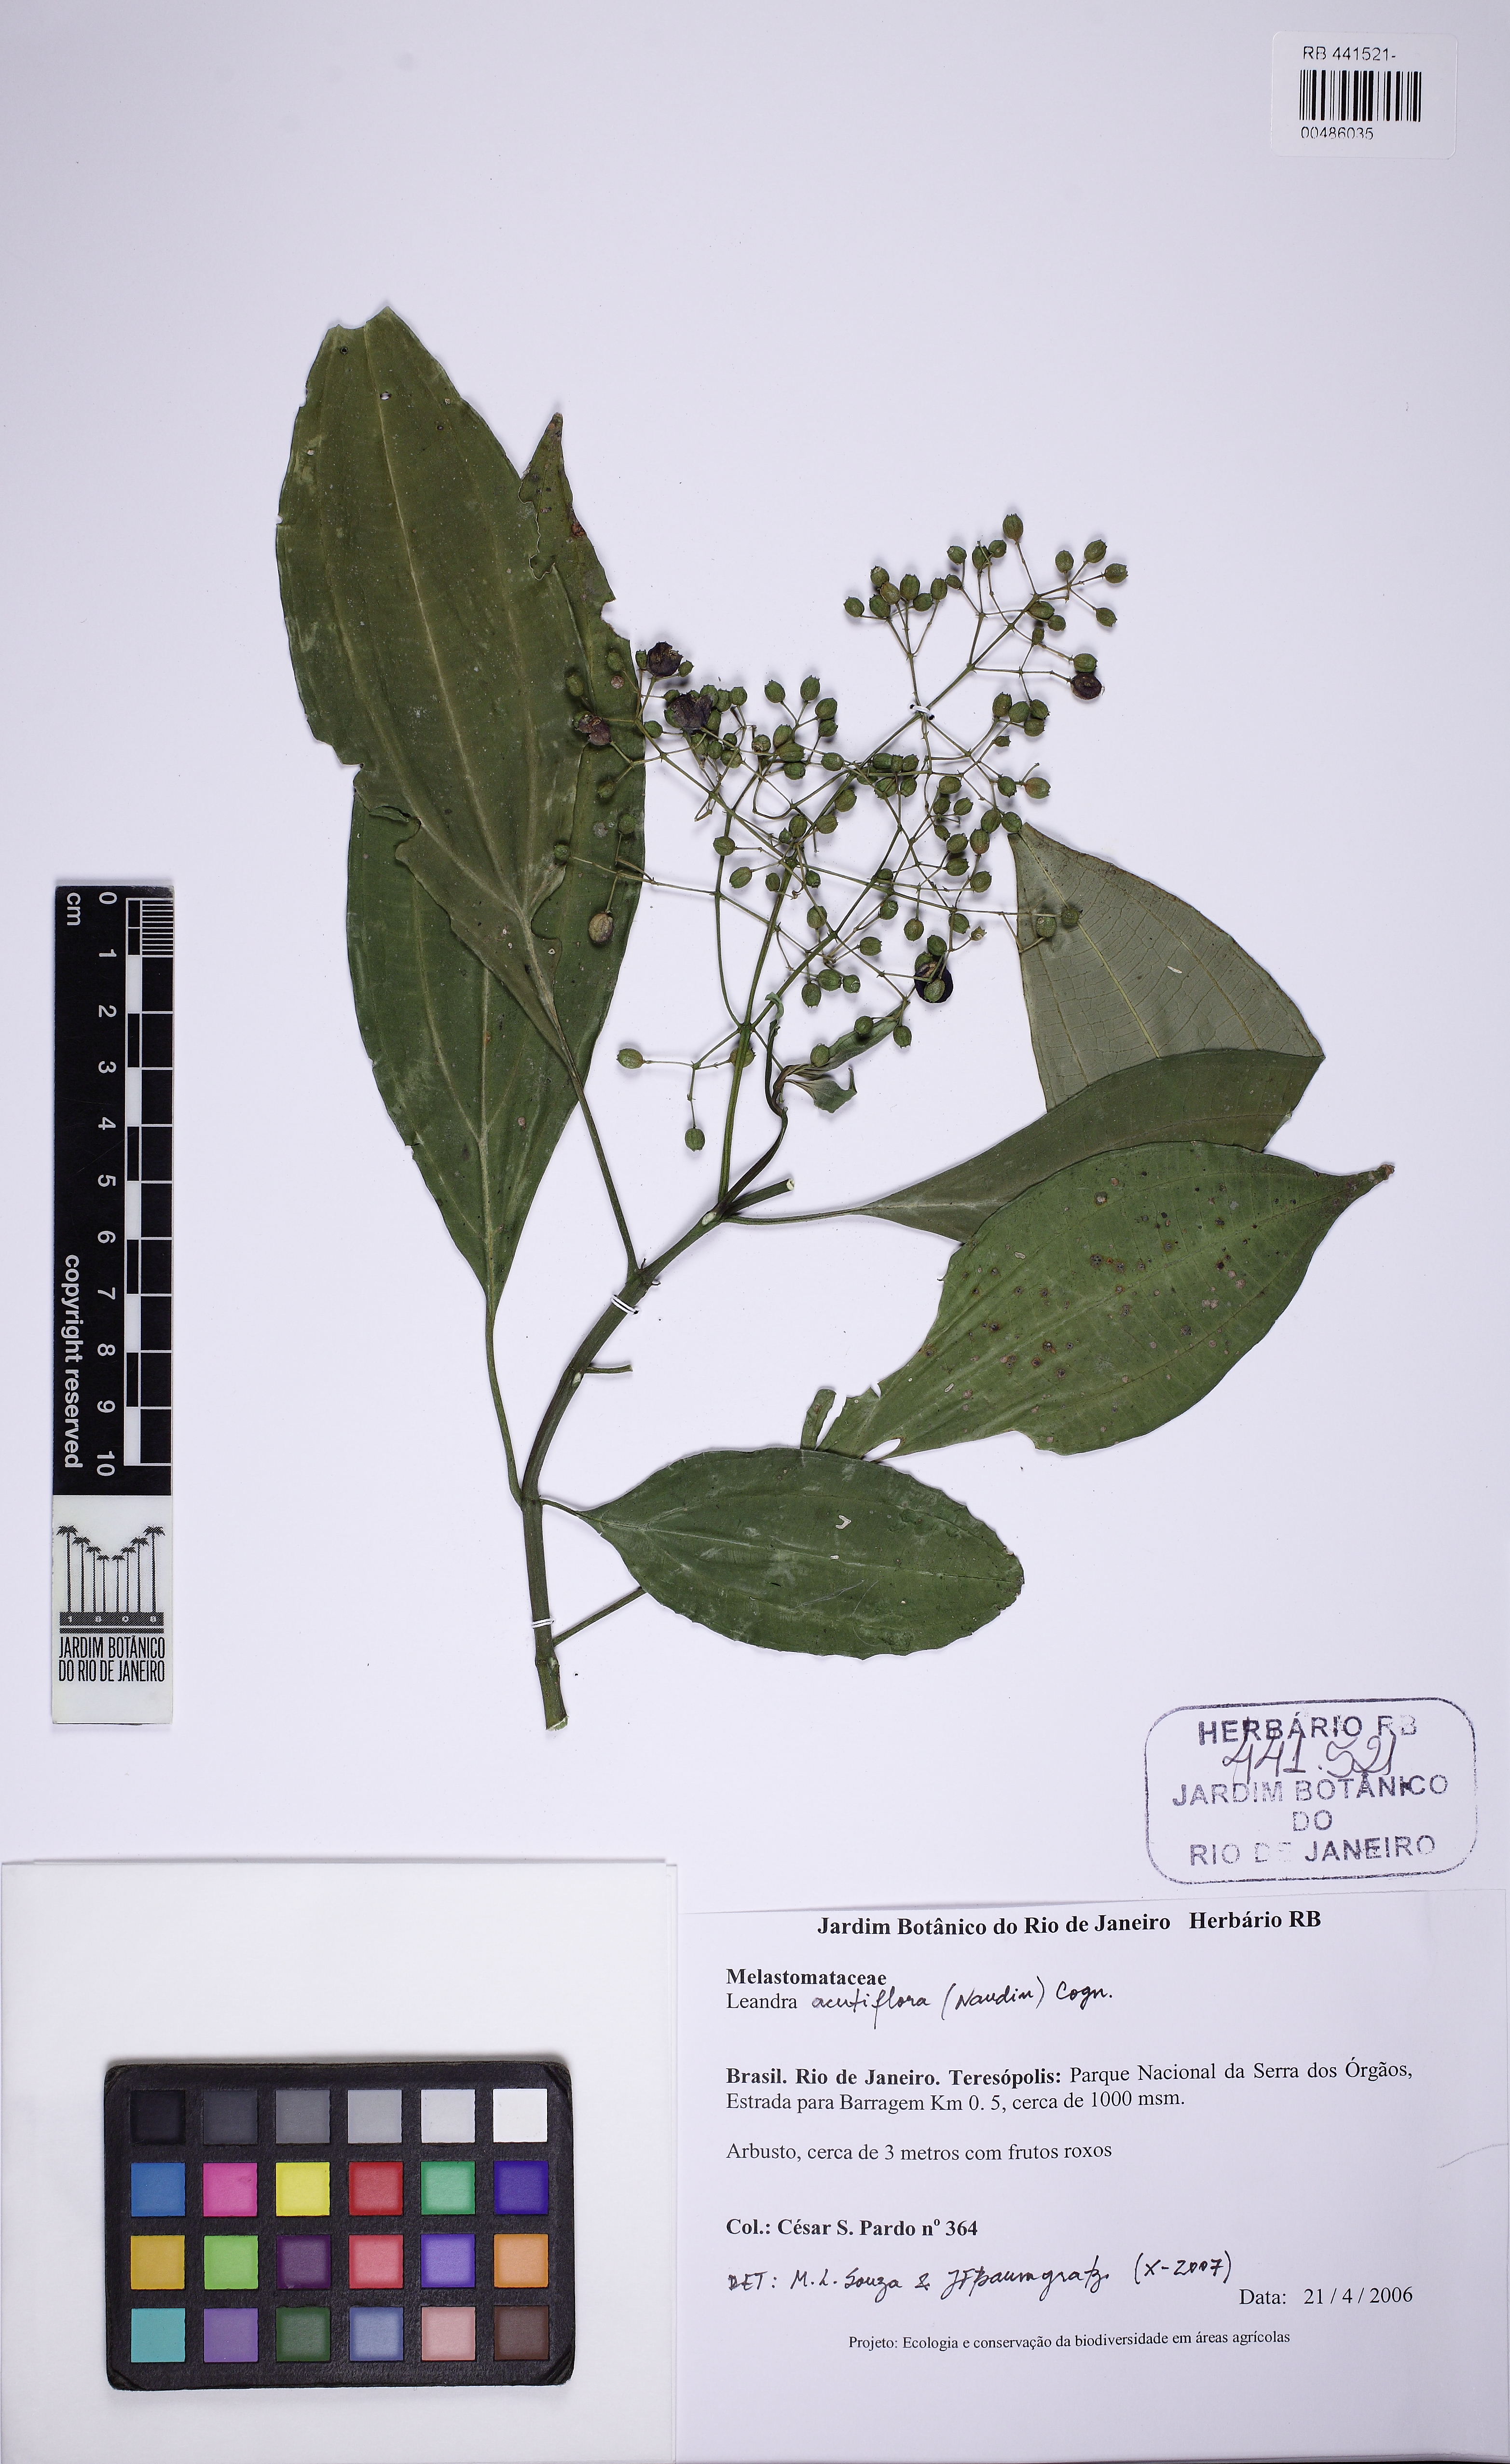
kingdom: Plantae
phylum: Tracheophyta
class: Magnoliopsida
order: Myrtales
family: Melastomataceae
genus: Miconia
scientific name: Miconia acutiflora
